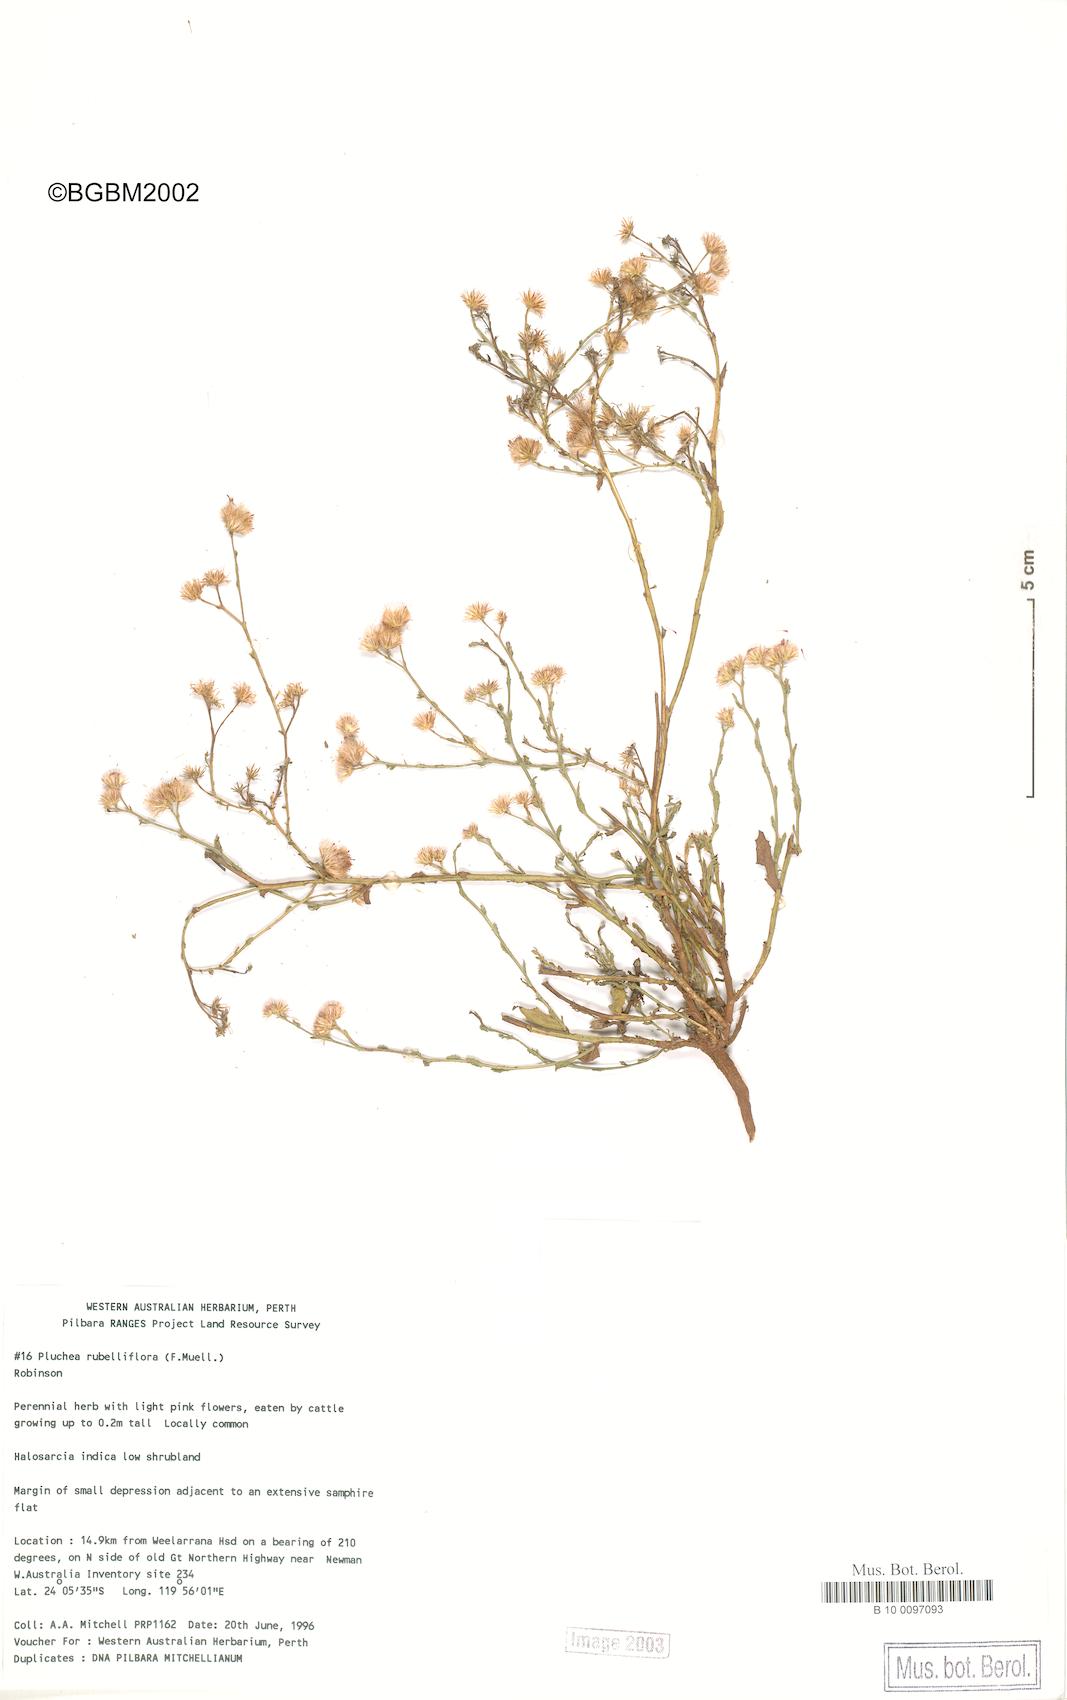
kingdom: Plantae
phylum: Tracheophyta
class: Magnoliopsida
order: Asterales
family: Asteraceae
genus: Pluchea
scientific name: Pluchea rubelliflora
